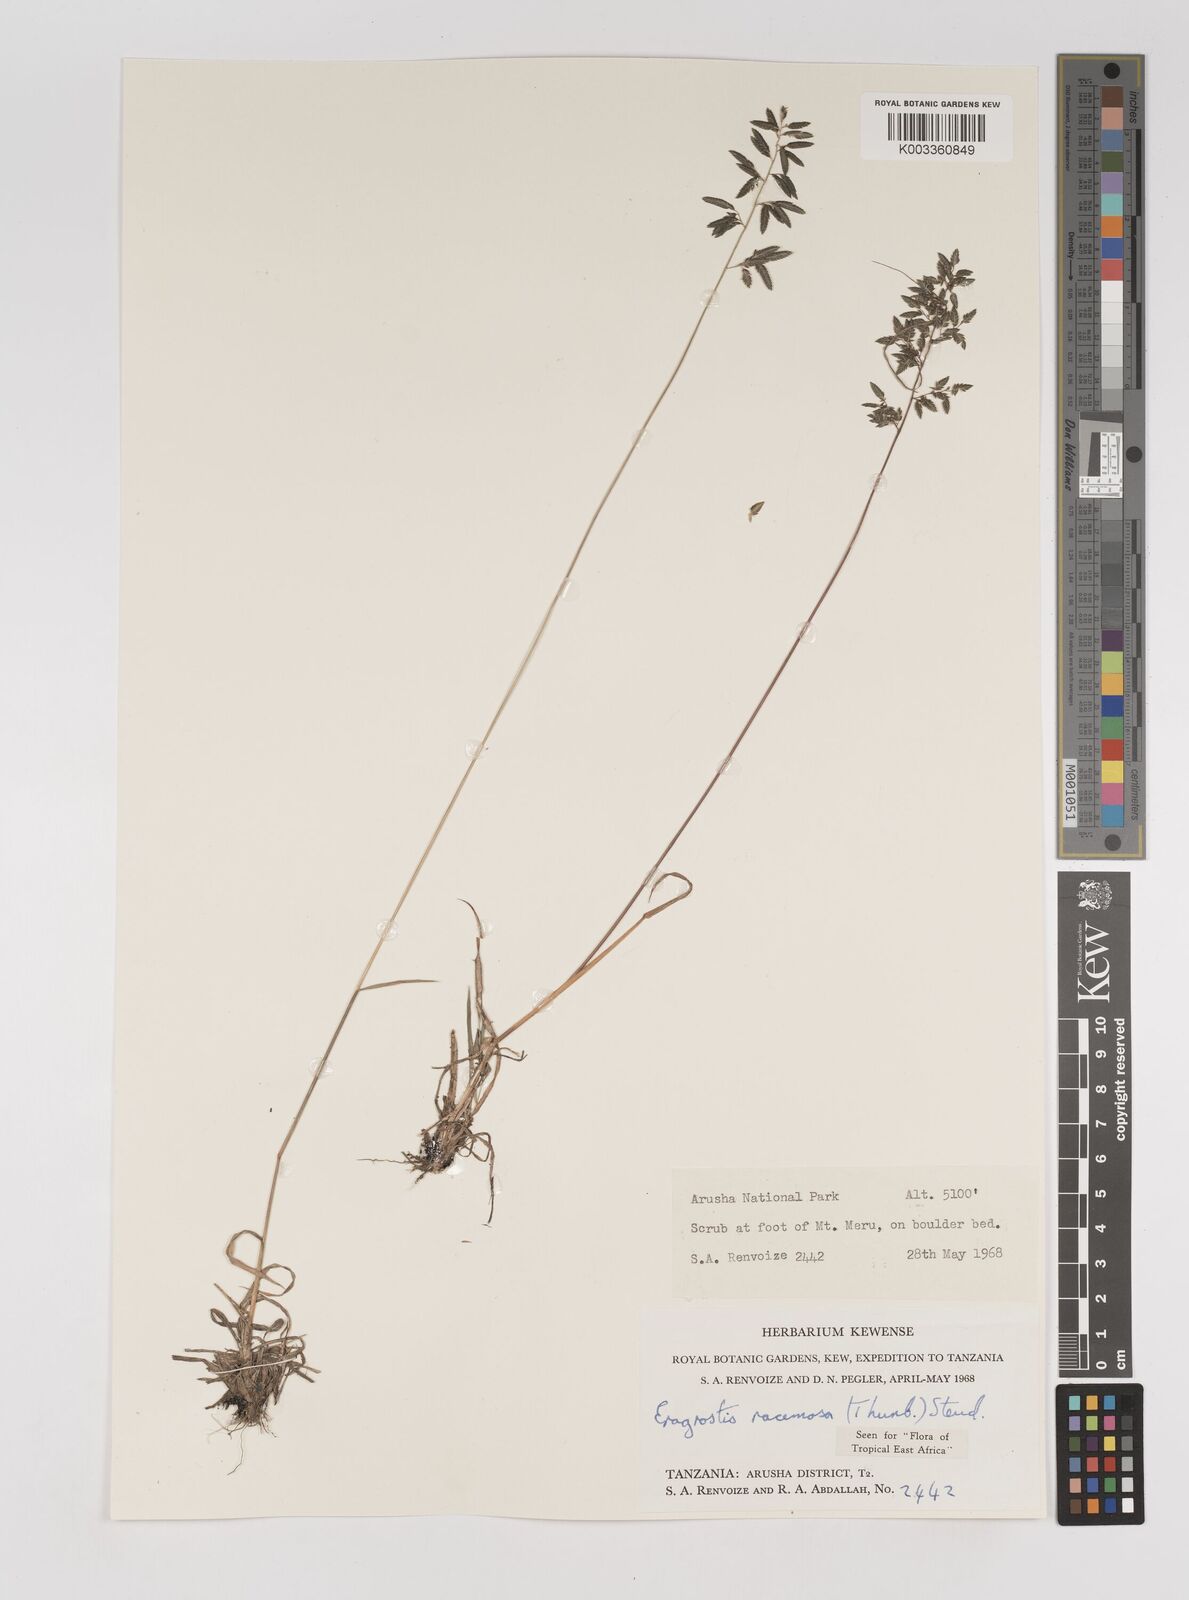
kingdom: Plantae
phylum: Tracheophyta
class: Liliopsida
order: Poales
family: Poaceae
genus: Eragrostis
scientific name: Eragrostis racemosa
